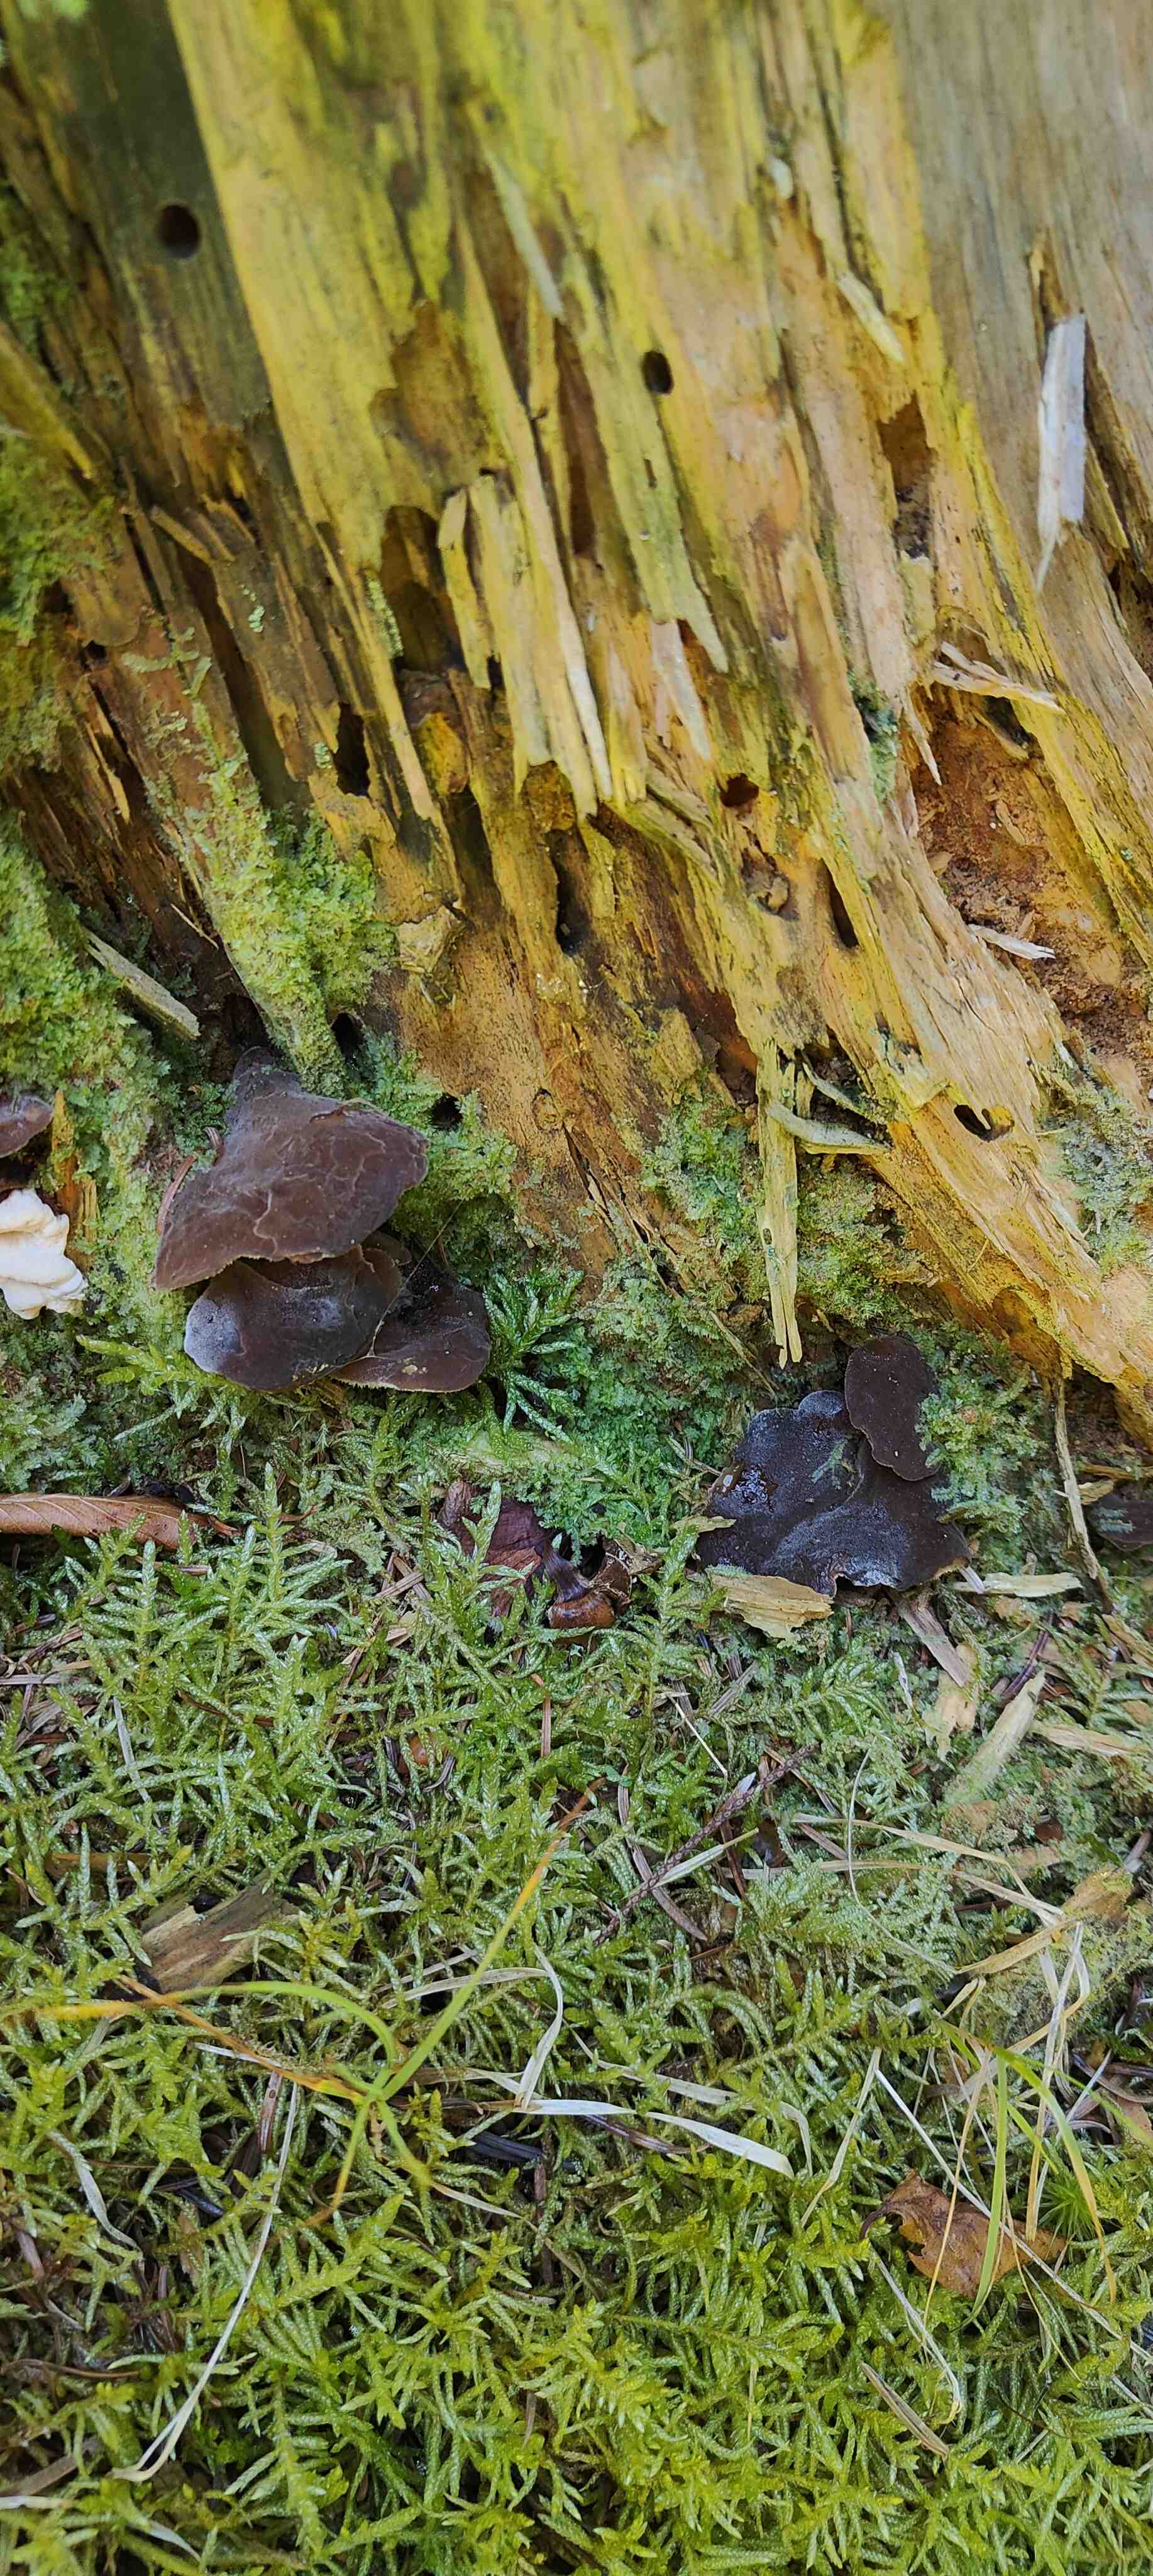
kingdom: Fungi
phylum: Basidiomycota
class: Agaricomycetes
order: Auriculariales
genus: Pseudohydnum
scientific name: Pseudohydnum gelatinosum
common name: bævretand
